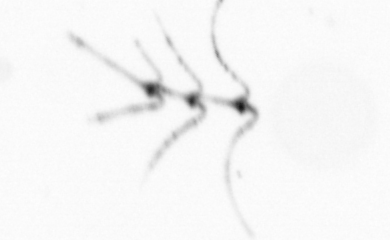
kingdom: Chromista
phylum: Ochrophyta
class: Bacillariophyceae
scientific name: Bacillariophyceae
